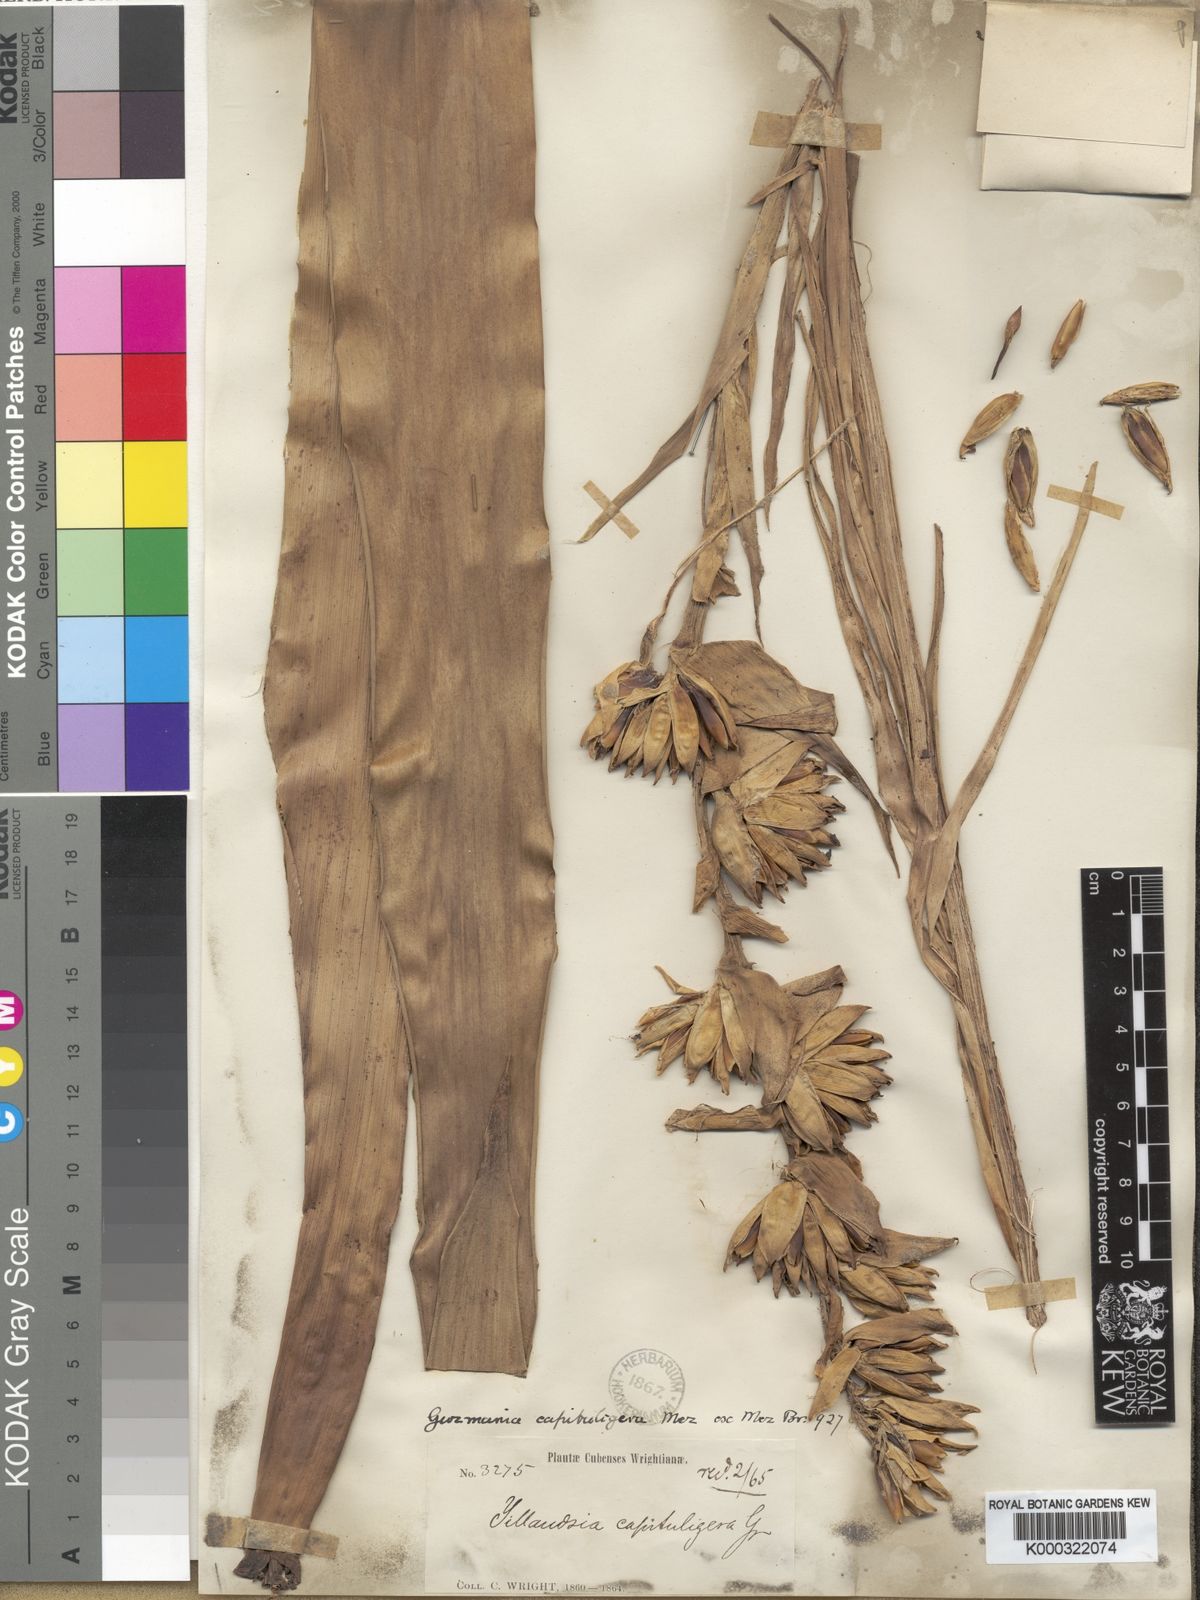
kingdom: Plantae
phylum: Tracheophyta
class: Liliopsida
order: Poales
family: Bromeliaceae
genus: Cipuropsis
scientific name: Cipuropsis capituligera
